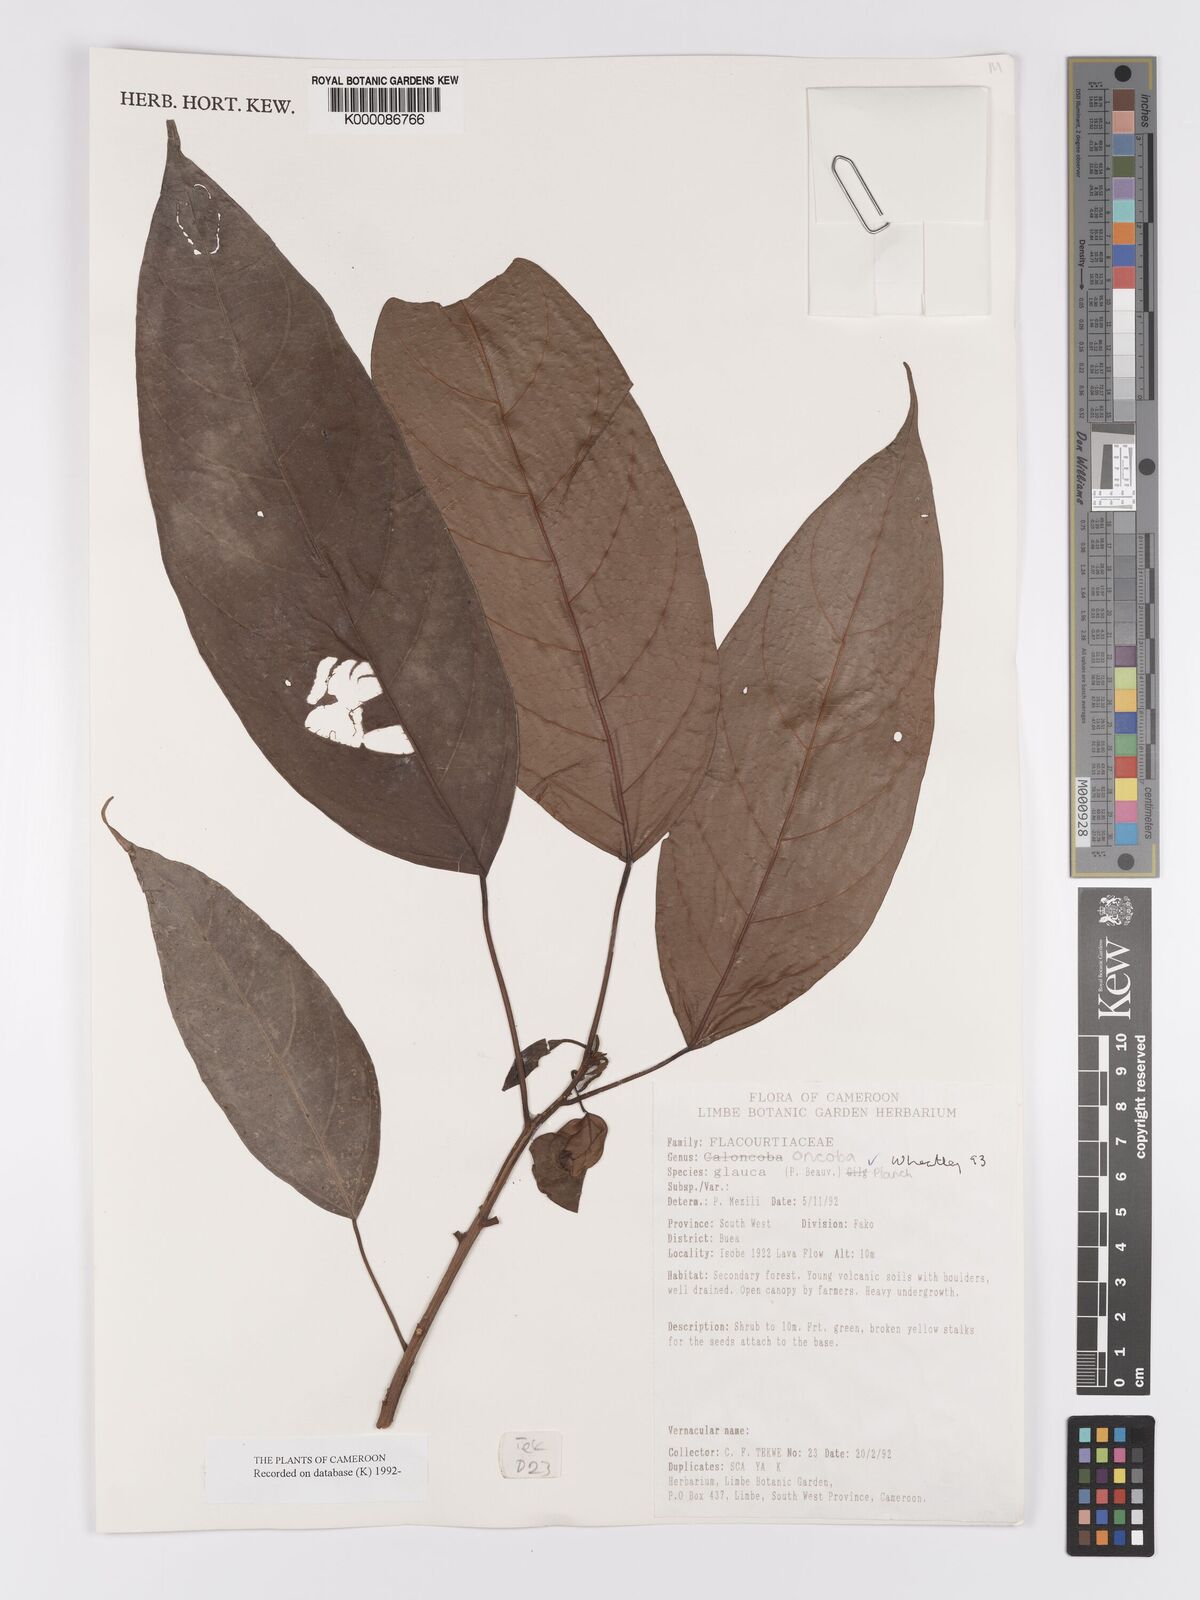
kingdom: Plantae
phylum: Tracheophyta
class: Magnoliopsida
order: Malpighiales
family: Achariaceae
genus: Caloncoba
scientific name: Caloncoba glauca
